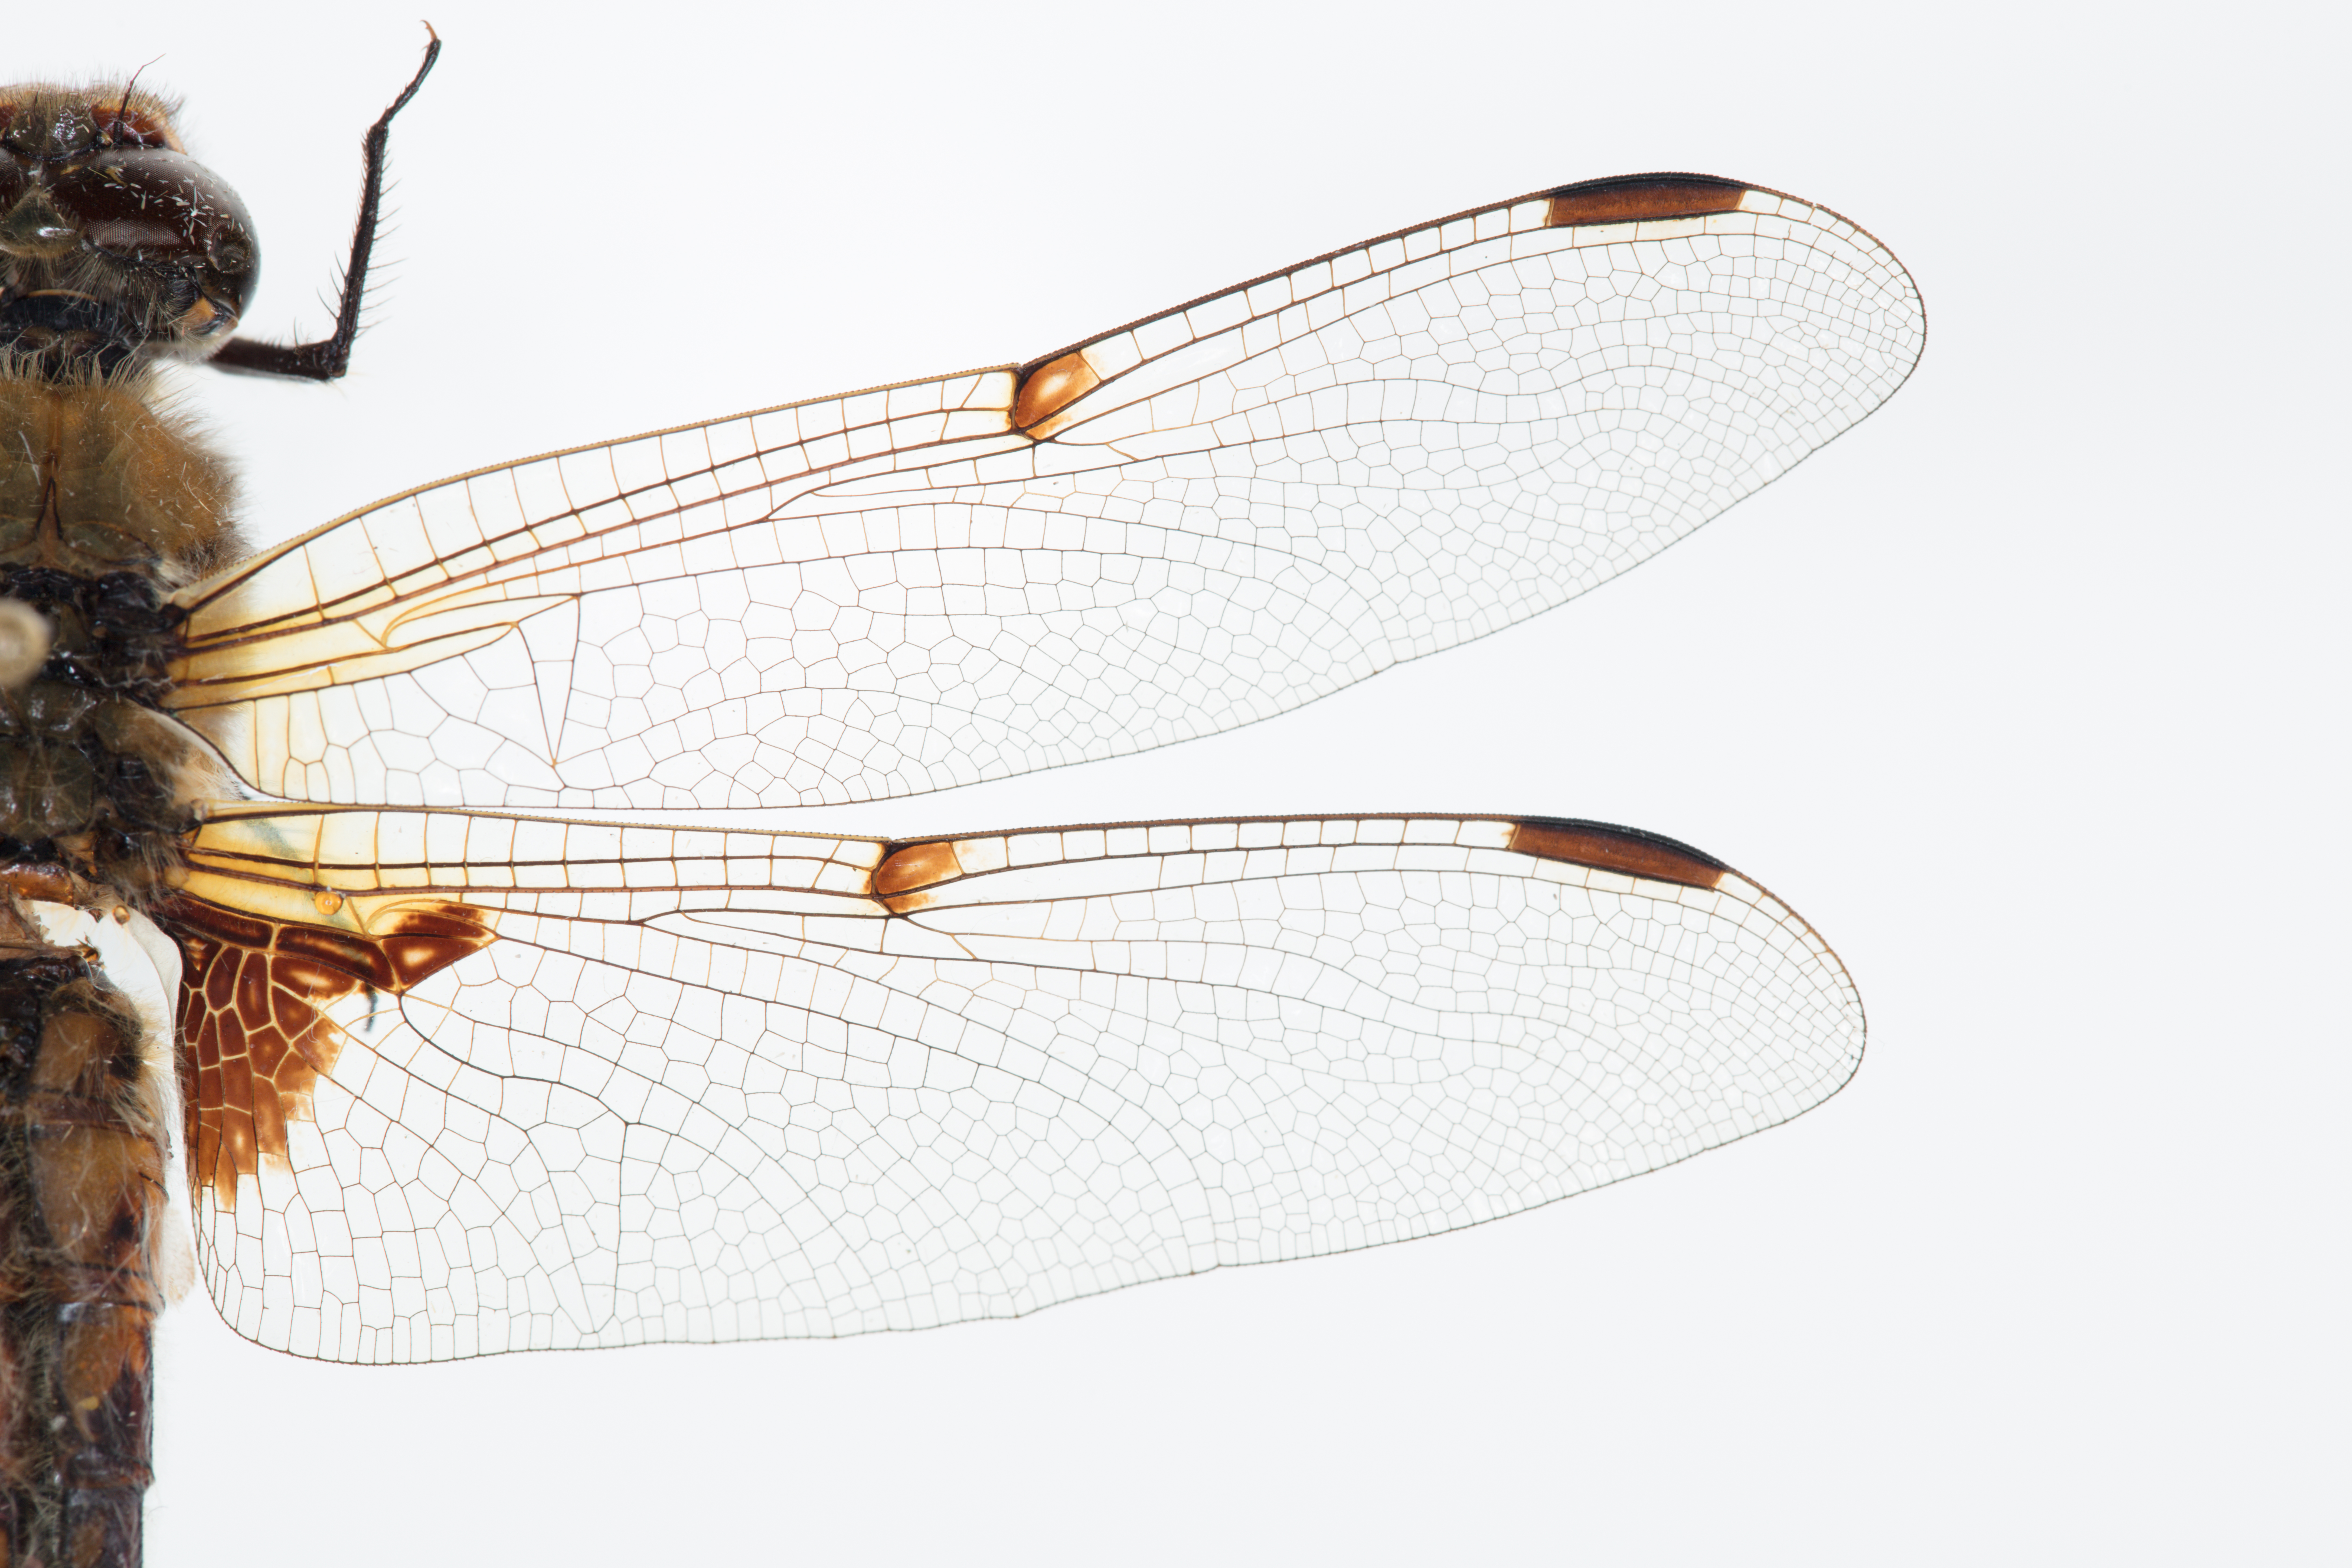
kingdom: Animalia
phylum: Arthropoda
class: Insecta
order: Odonata
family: Libellulidae
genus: Libellula
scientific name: Libellula quadrimaculata
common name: Four-spotted chaser
